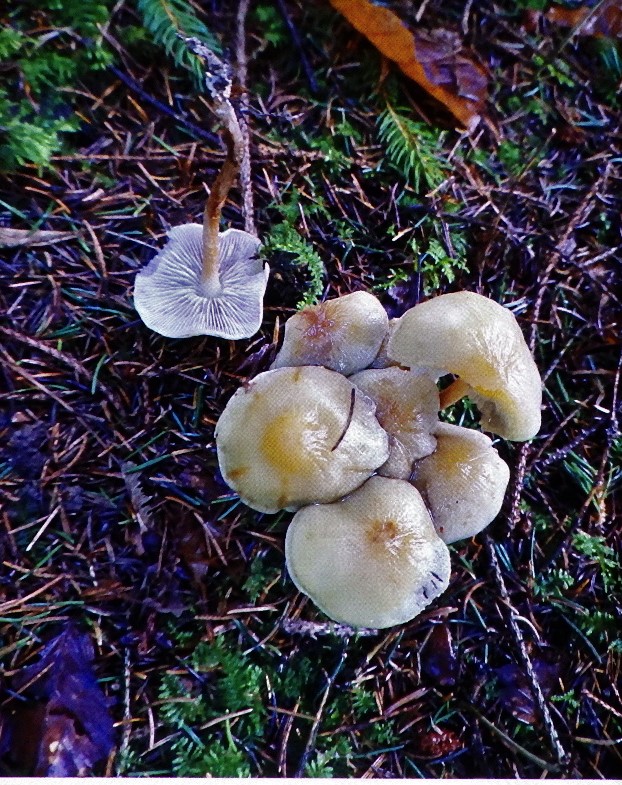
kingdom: Fungi
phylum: Basidiomycota
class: Agaricomycetes
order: Agaricales
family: Strophariaceae
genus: Hypholoma
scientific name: Hypholoma capnoides
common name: gran-svovlhat
